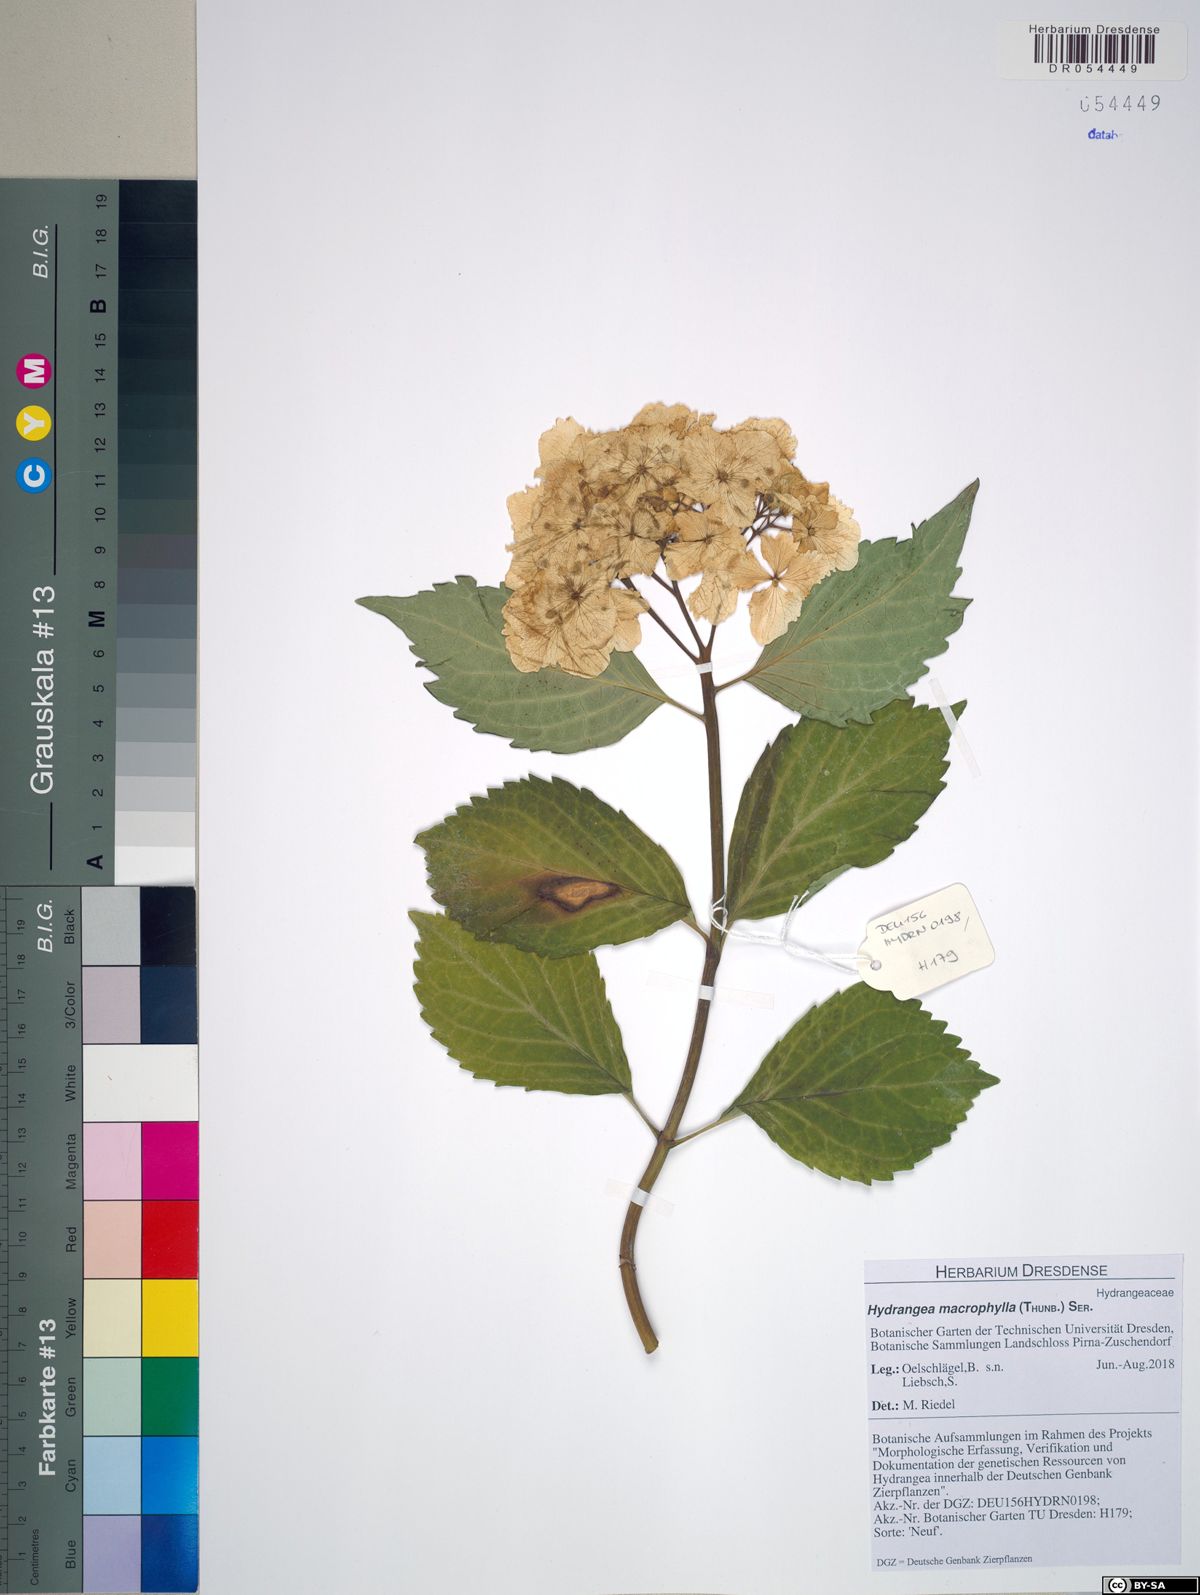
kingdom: Plantae
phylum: Tracheophyta
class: Magnoliopsida
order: Cornales
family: Hydrangeaceae
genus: Hydrangea
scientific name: Hydrangea macrophylla
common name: Hydrangea
